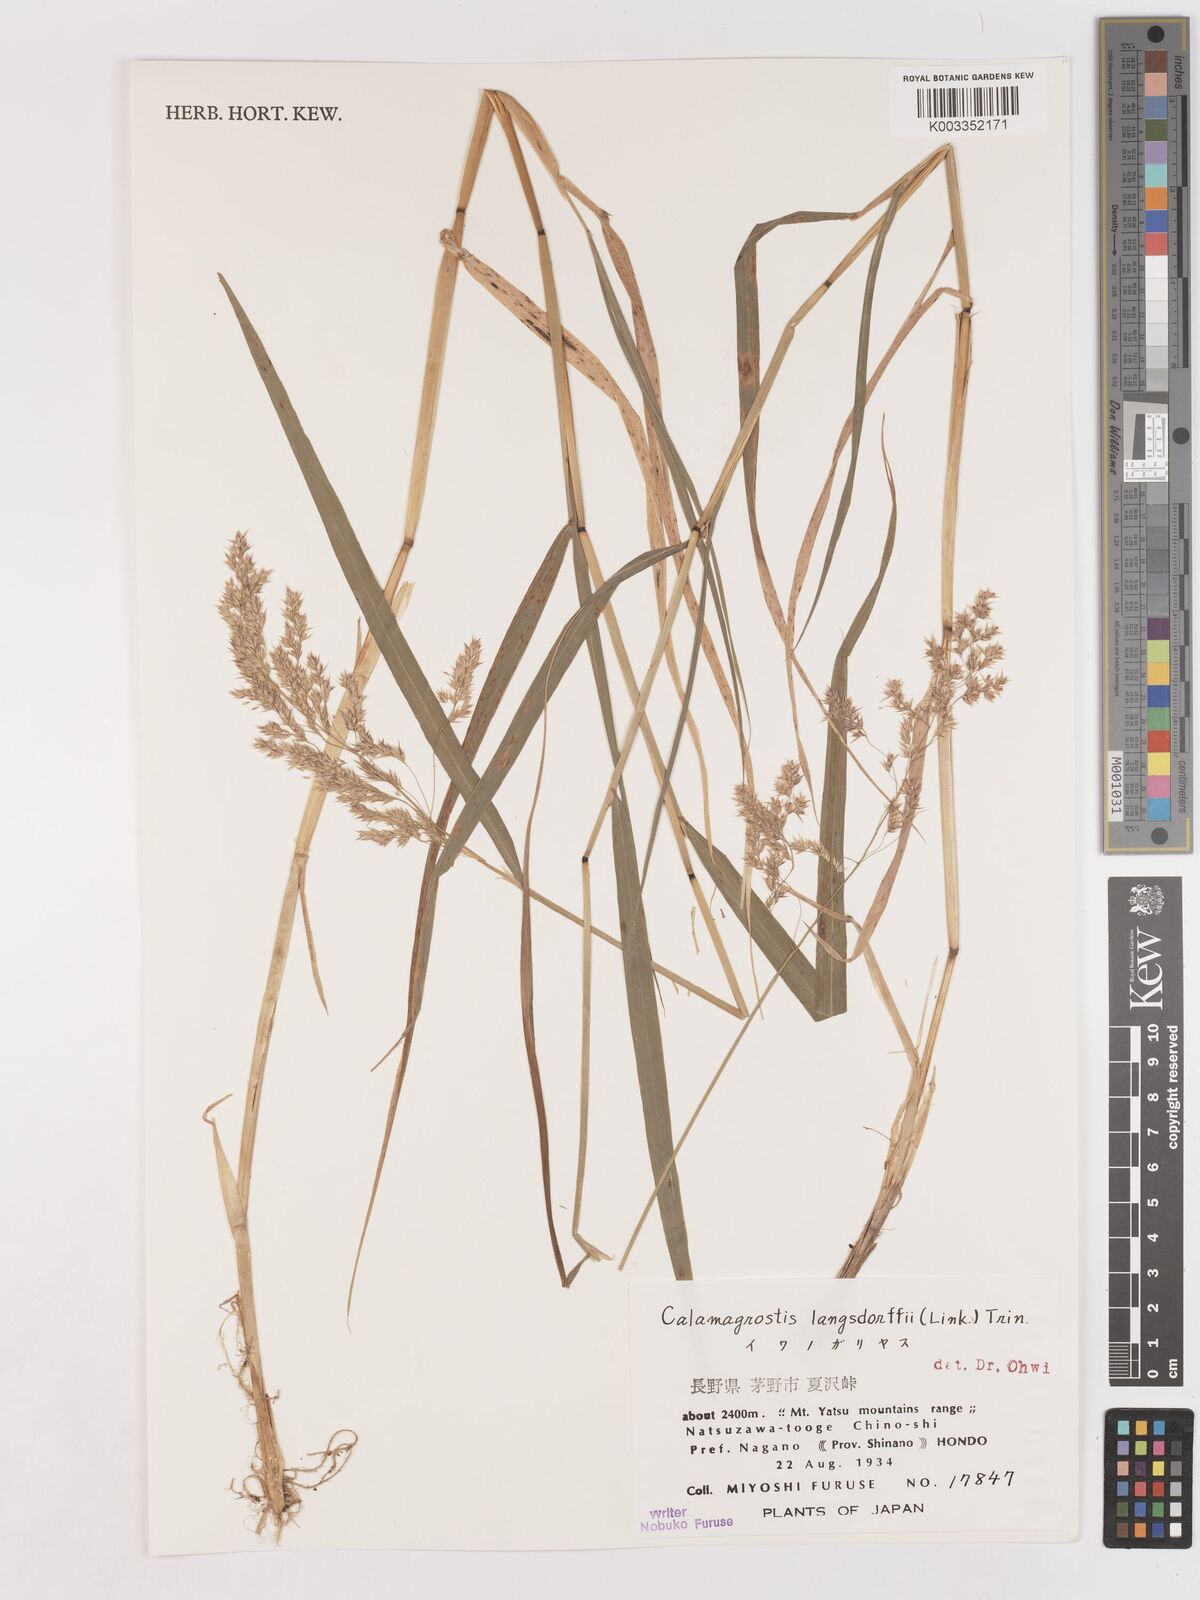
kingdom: Plantae
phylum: Tracheophyta
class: Liliopsida
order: Poales
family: Poaceae
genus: Calamagrostis
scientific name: Calamagrostis purpurea
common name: Scandinavian small-reed
